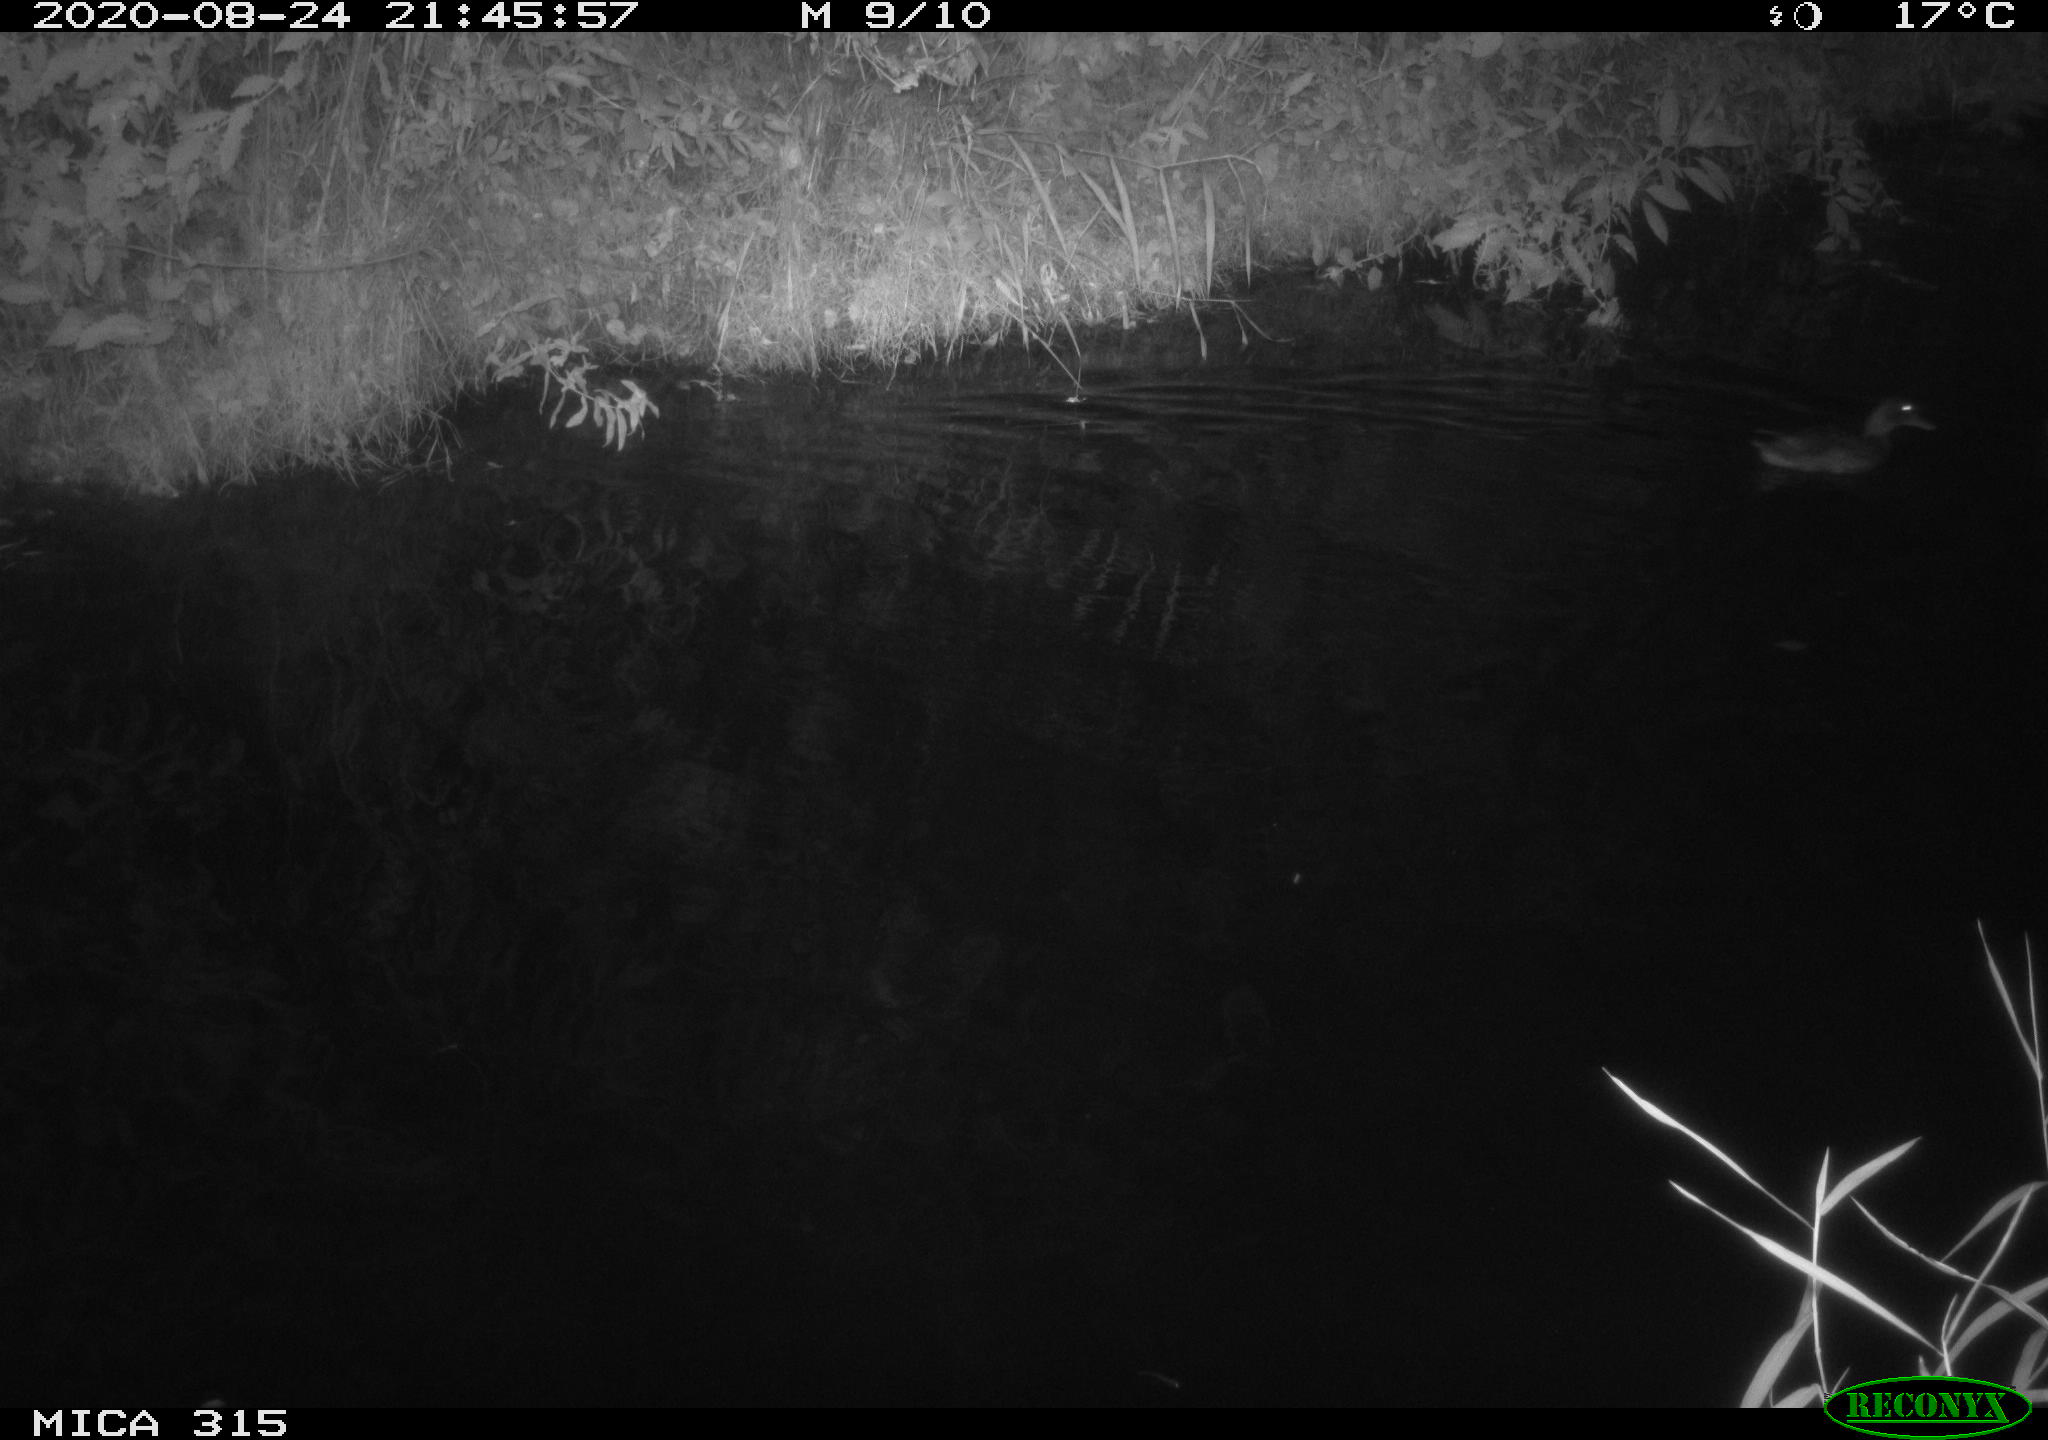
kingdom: Animalia
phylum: Chordata
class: Aves
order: Anseriformes
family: Anatidae
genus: Anas
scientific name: Anas platyrhynchos
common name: Mallard
